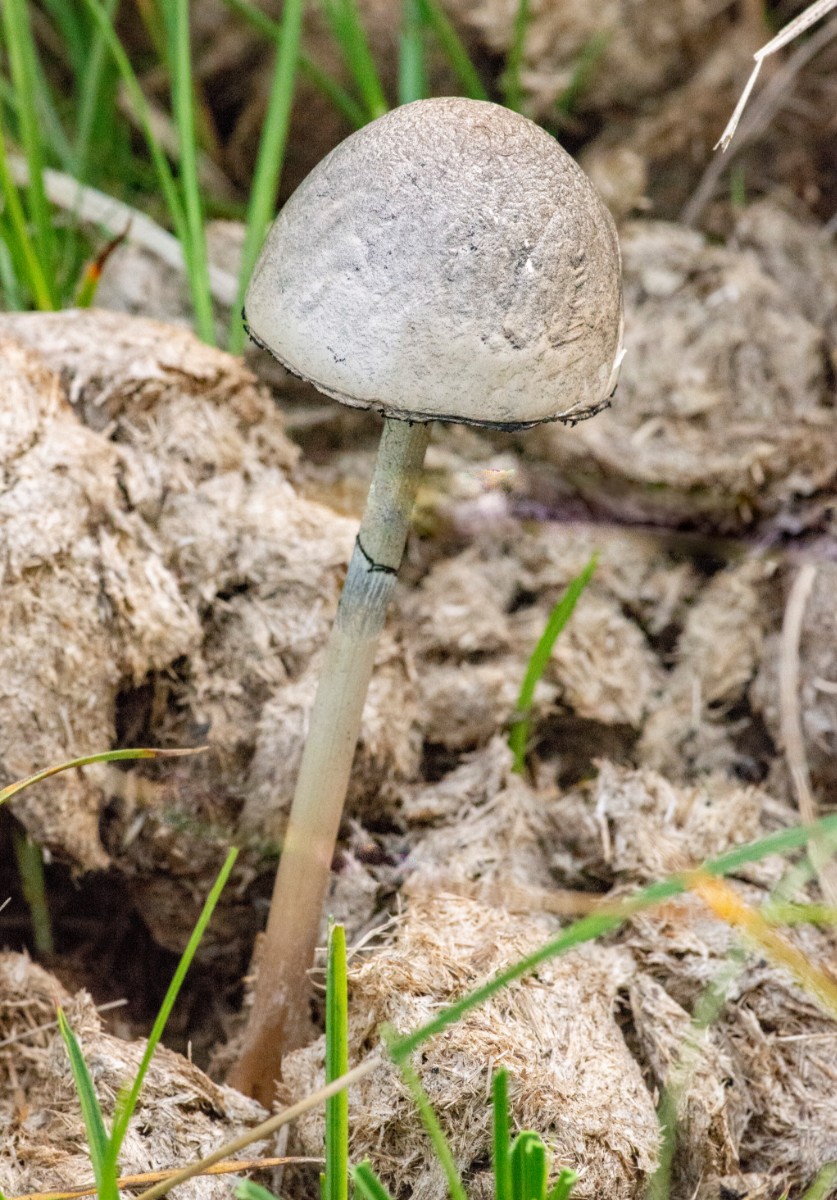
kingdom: Fungi
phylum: Basidiomycota
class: Agaricomycetes
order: Agaricales
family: Bolbitiaceae
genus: Panaeolus
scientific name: Panaeolus semiovatus
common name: ring-glanshat
